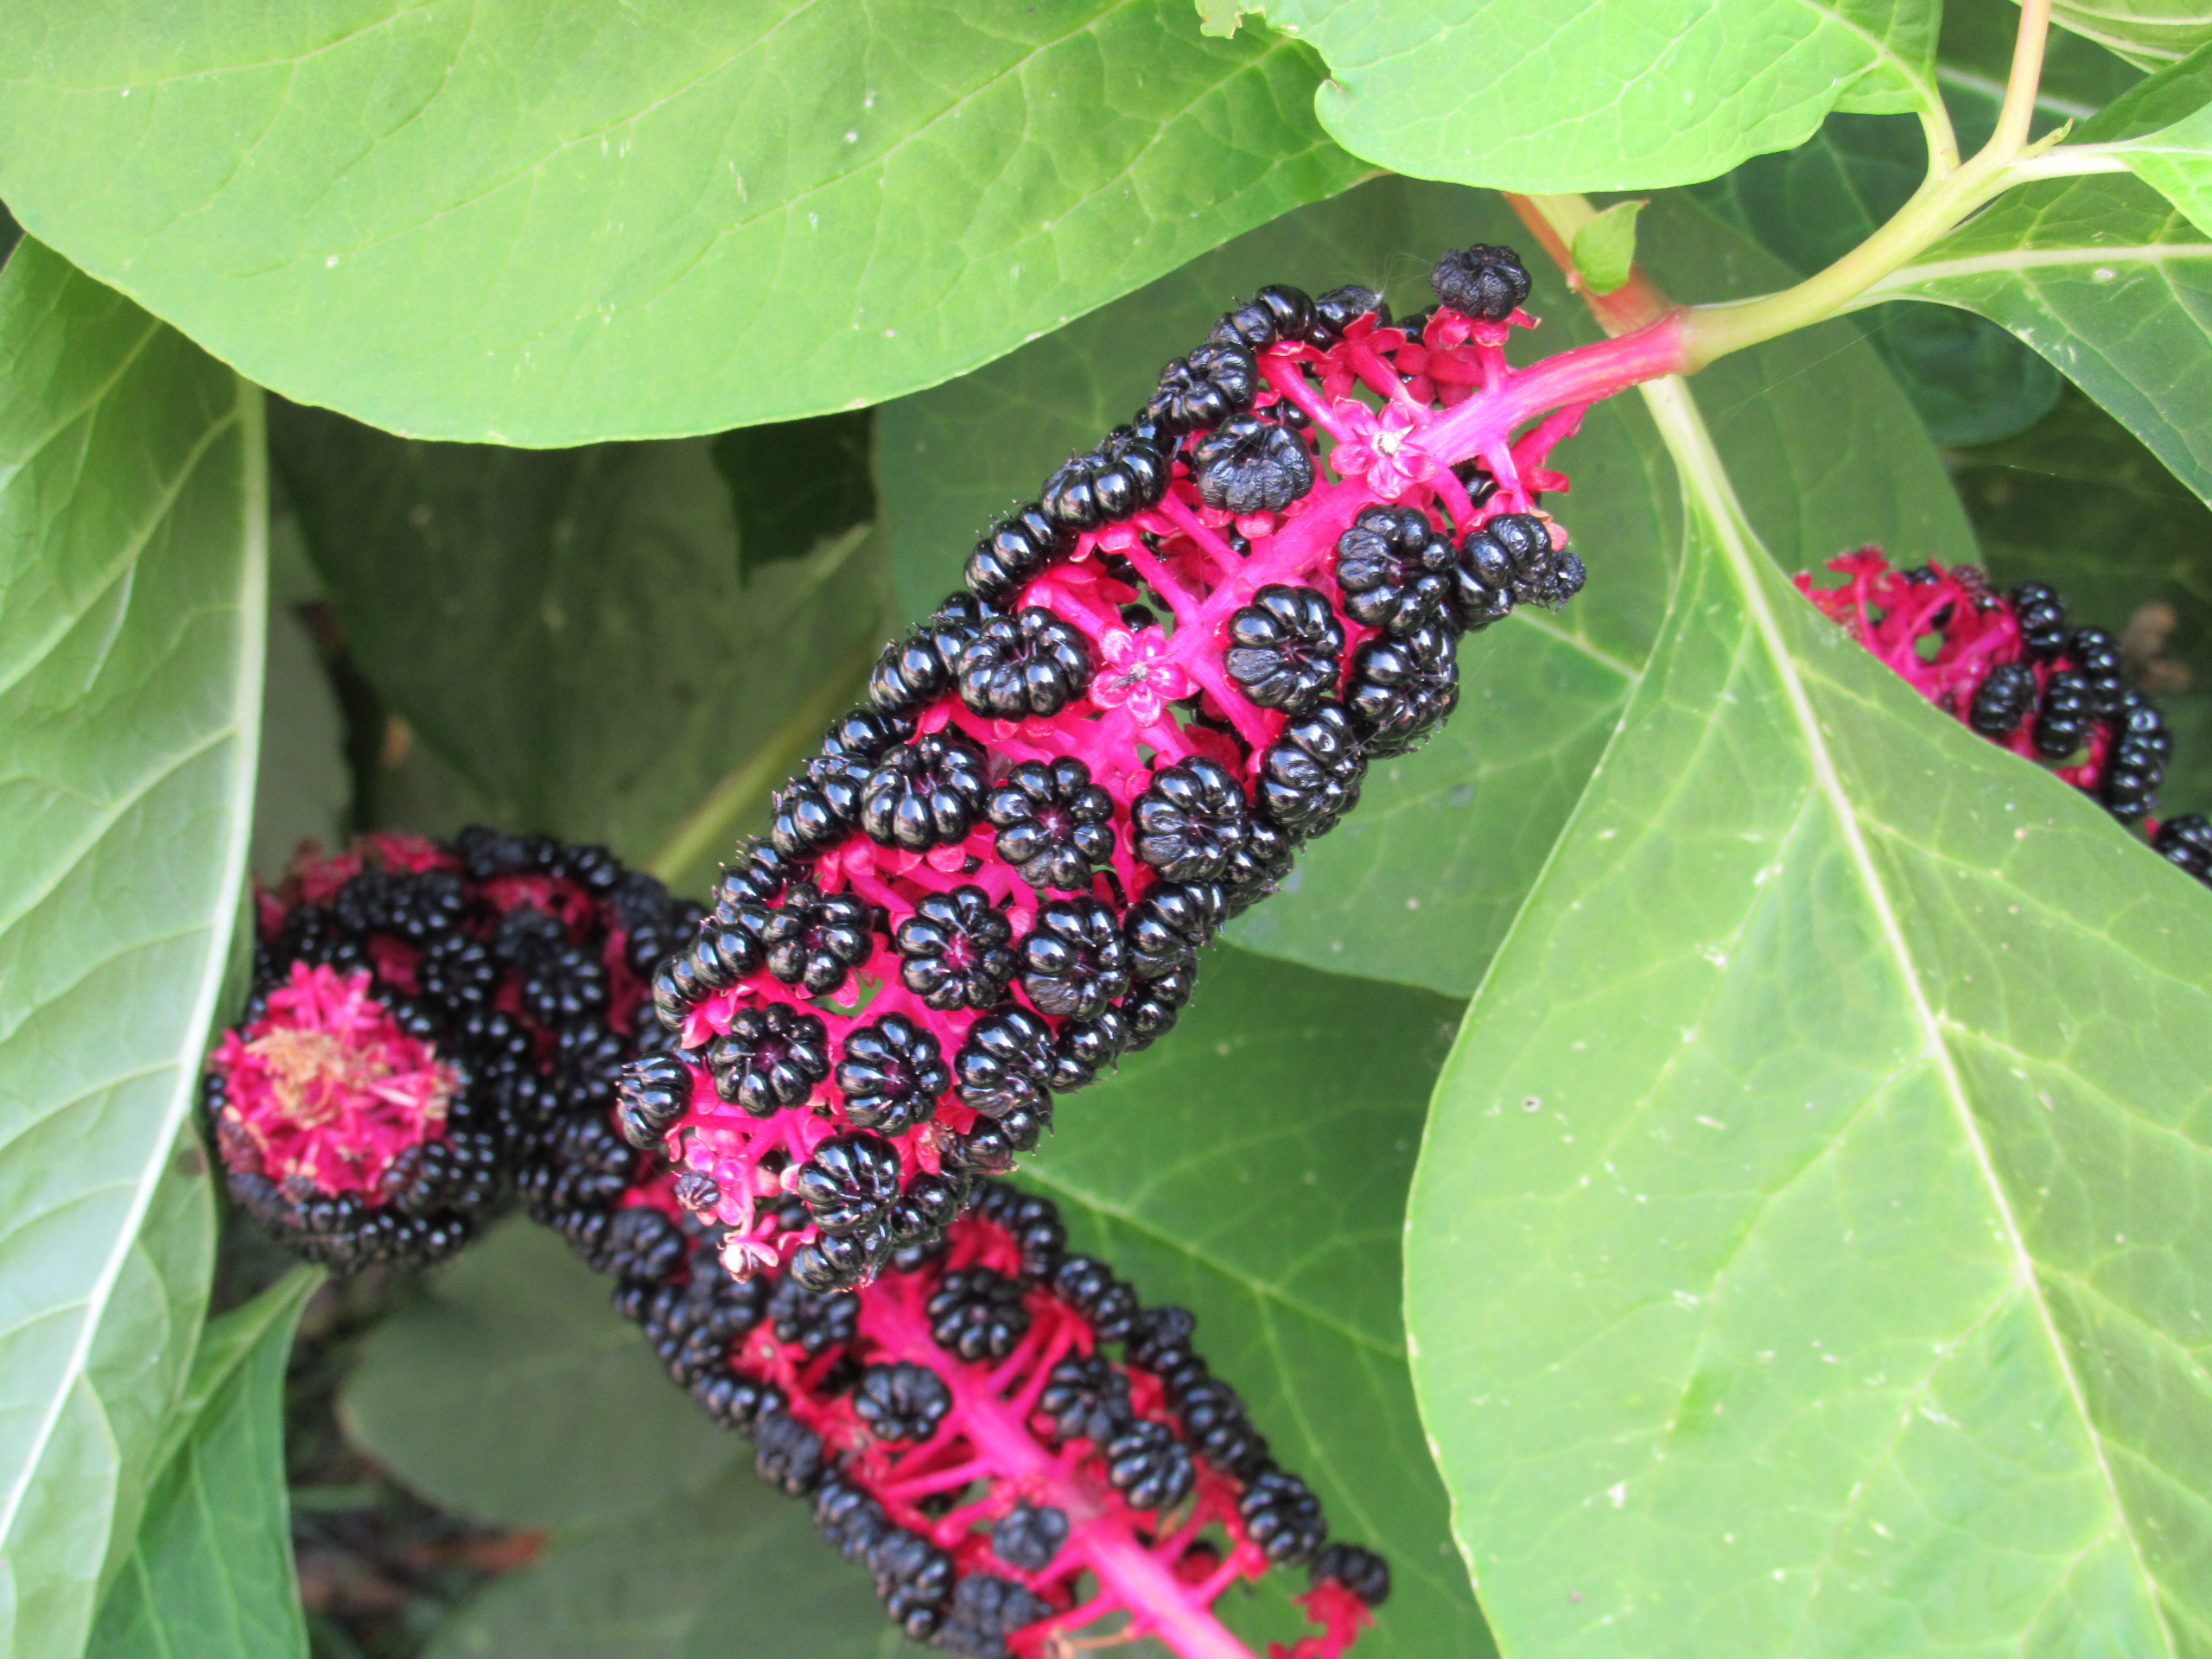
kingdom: Plantae
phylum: Tracheophyta
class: Magnoliopsida
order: Caryophyllales
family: Phytolaccaceae
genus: Phytolacca
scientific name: Phytolacca acinosa
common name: Asiatisk kermesbær
